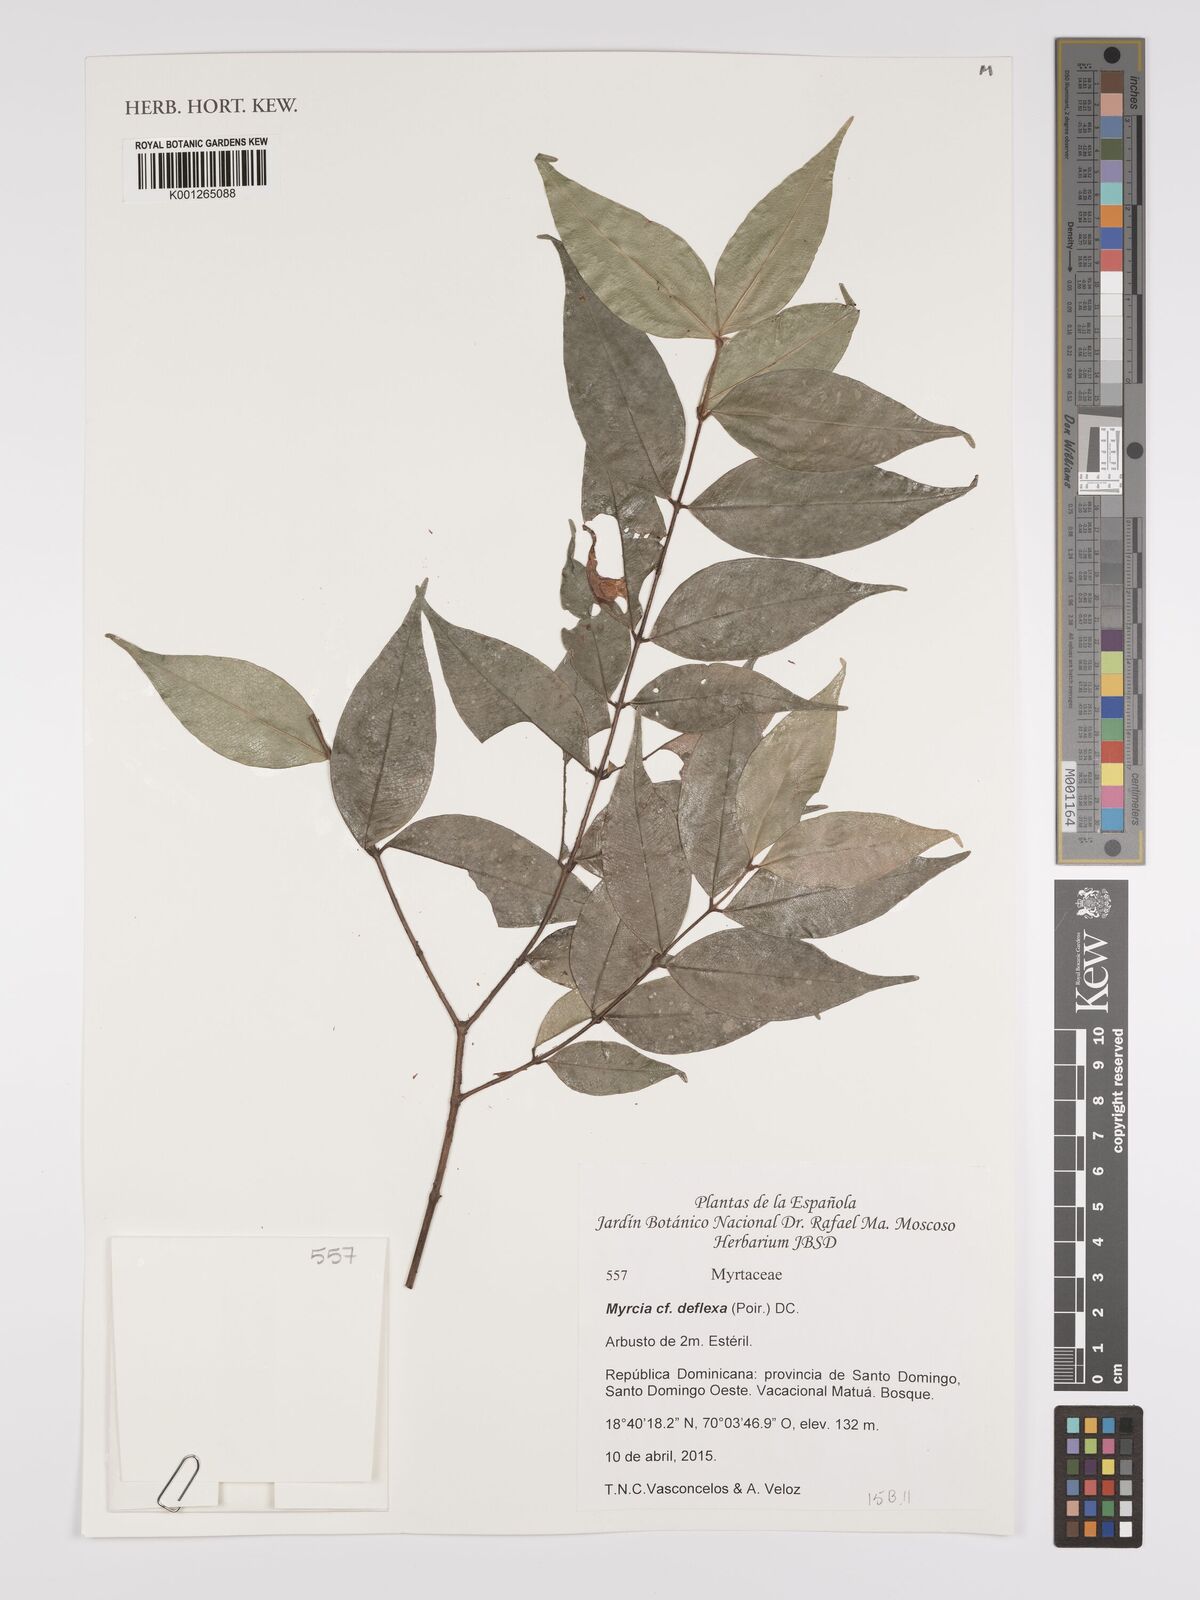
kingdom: Plantae
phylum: Tracheophyta
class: Magnoliopsida
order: Myrtales
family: Myrtaceae
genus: Myrcia
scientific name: Myrcia deflexa
